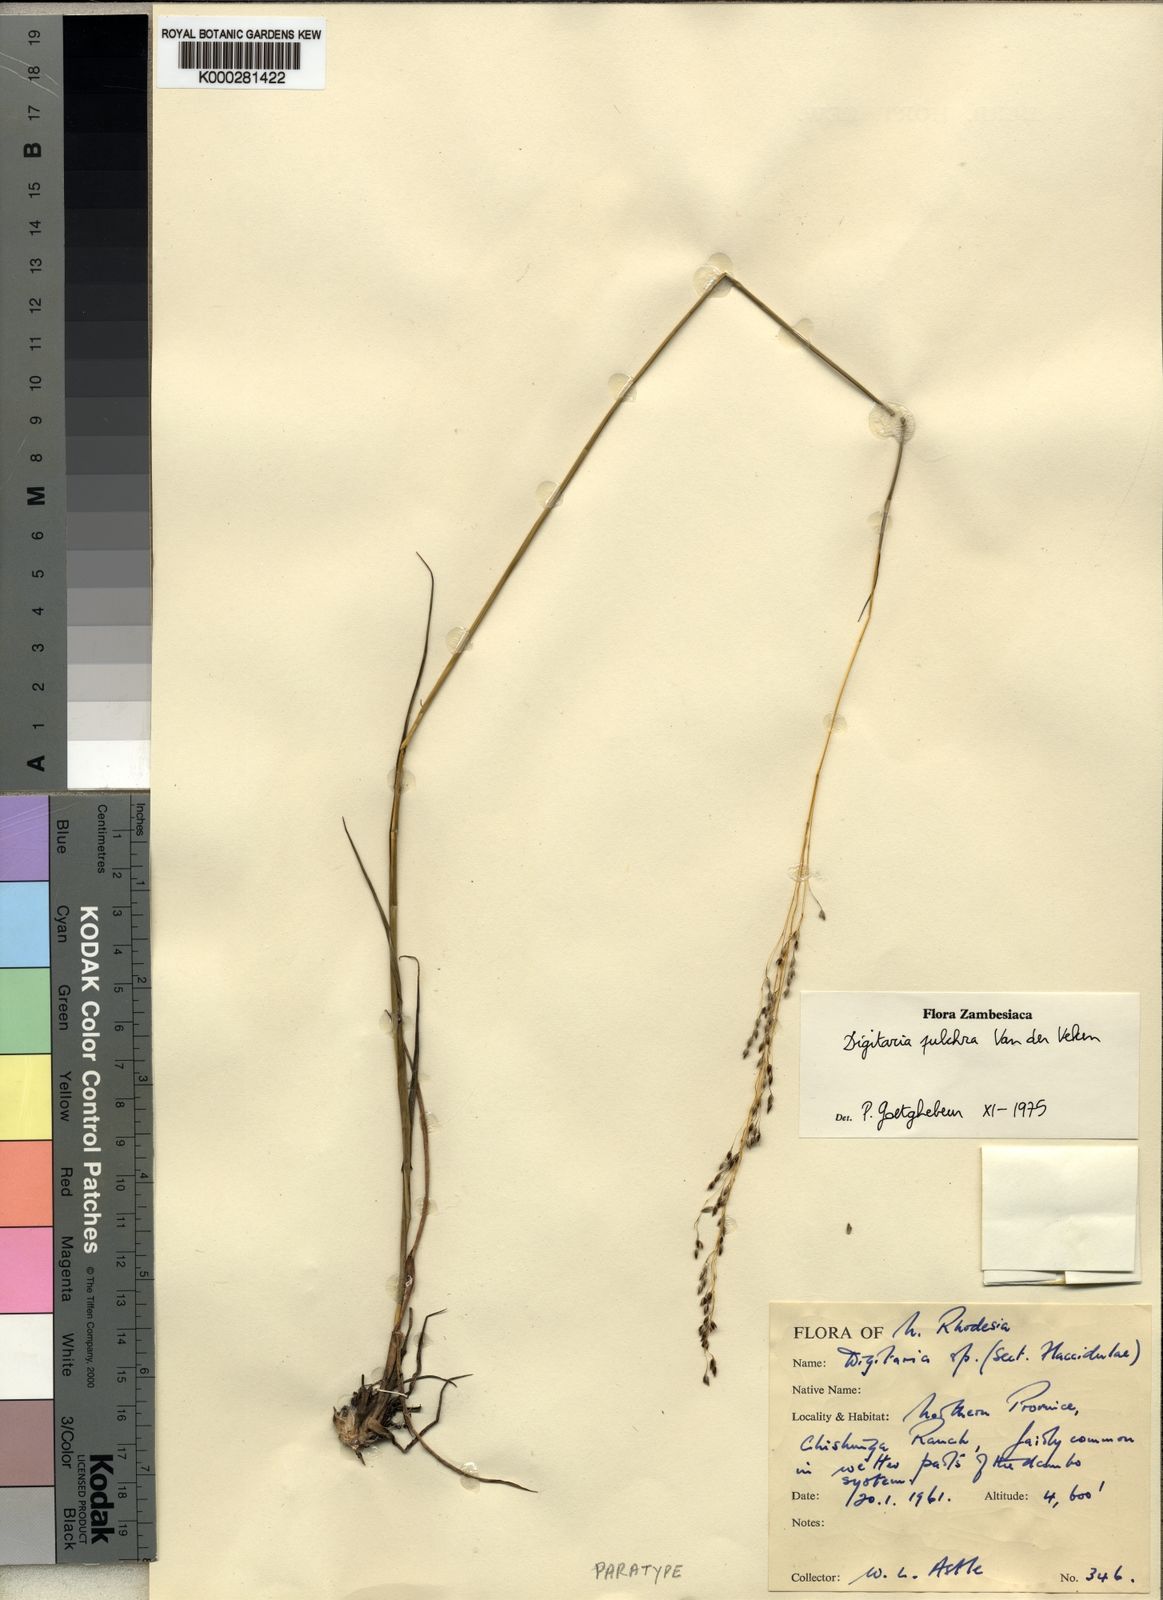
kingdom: Plantae
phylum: Tracheophyta
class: Liliopsida
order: Poales
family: Poaceae
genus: Digitaria
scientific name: Digitaria pulchra
